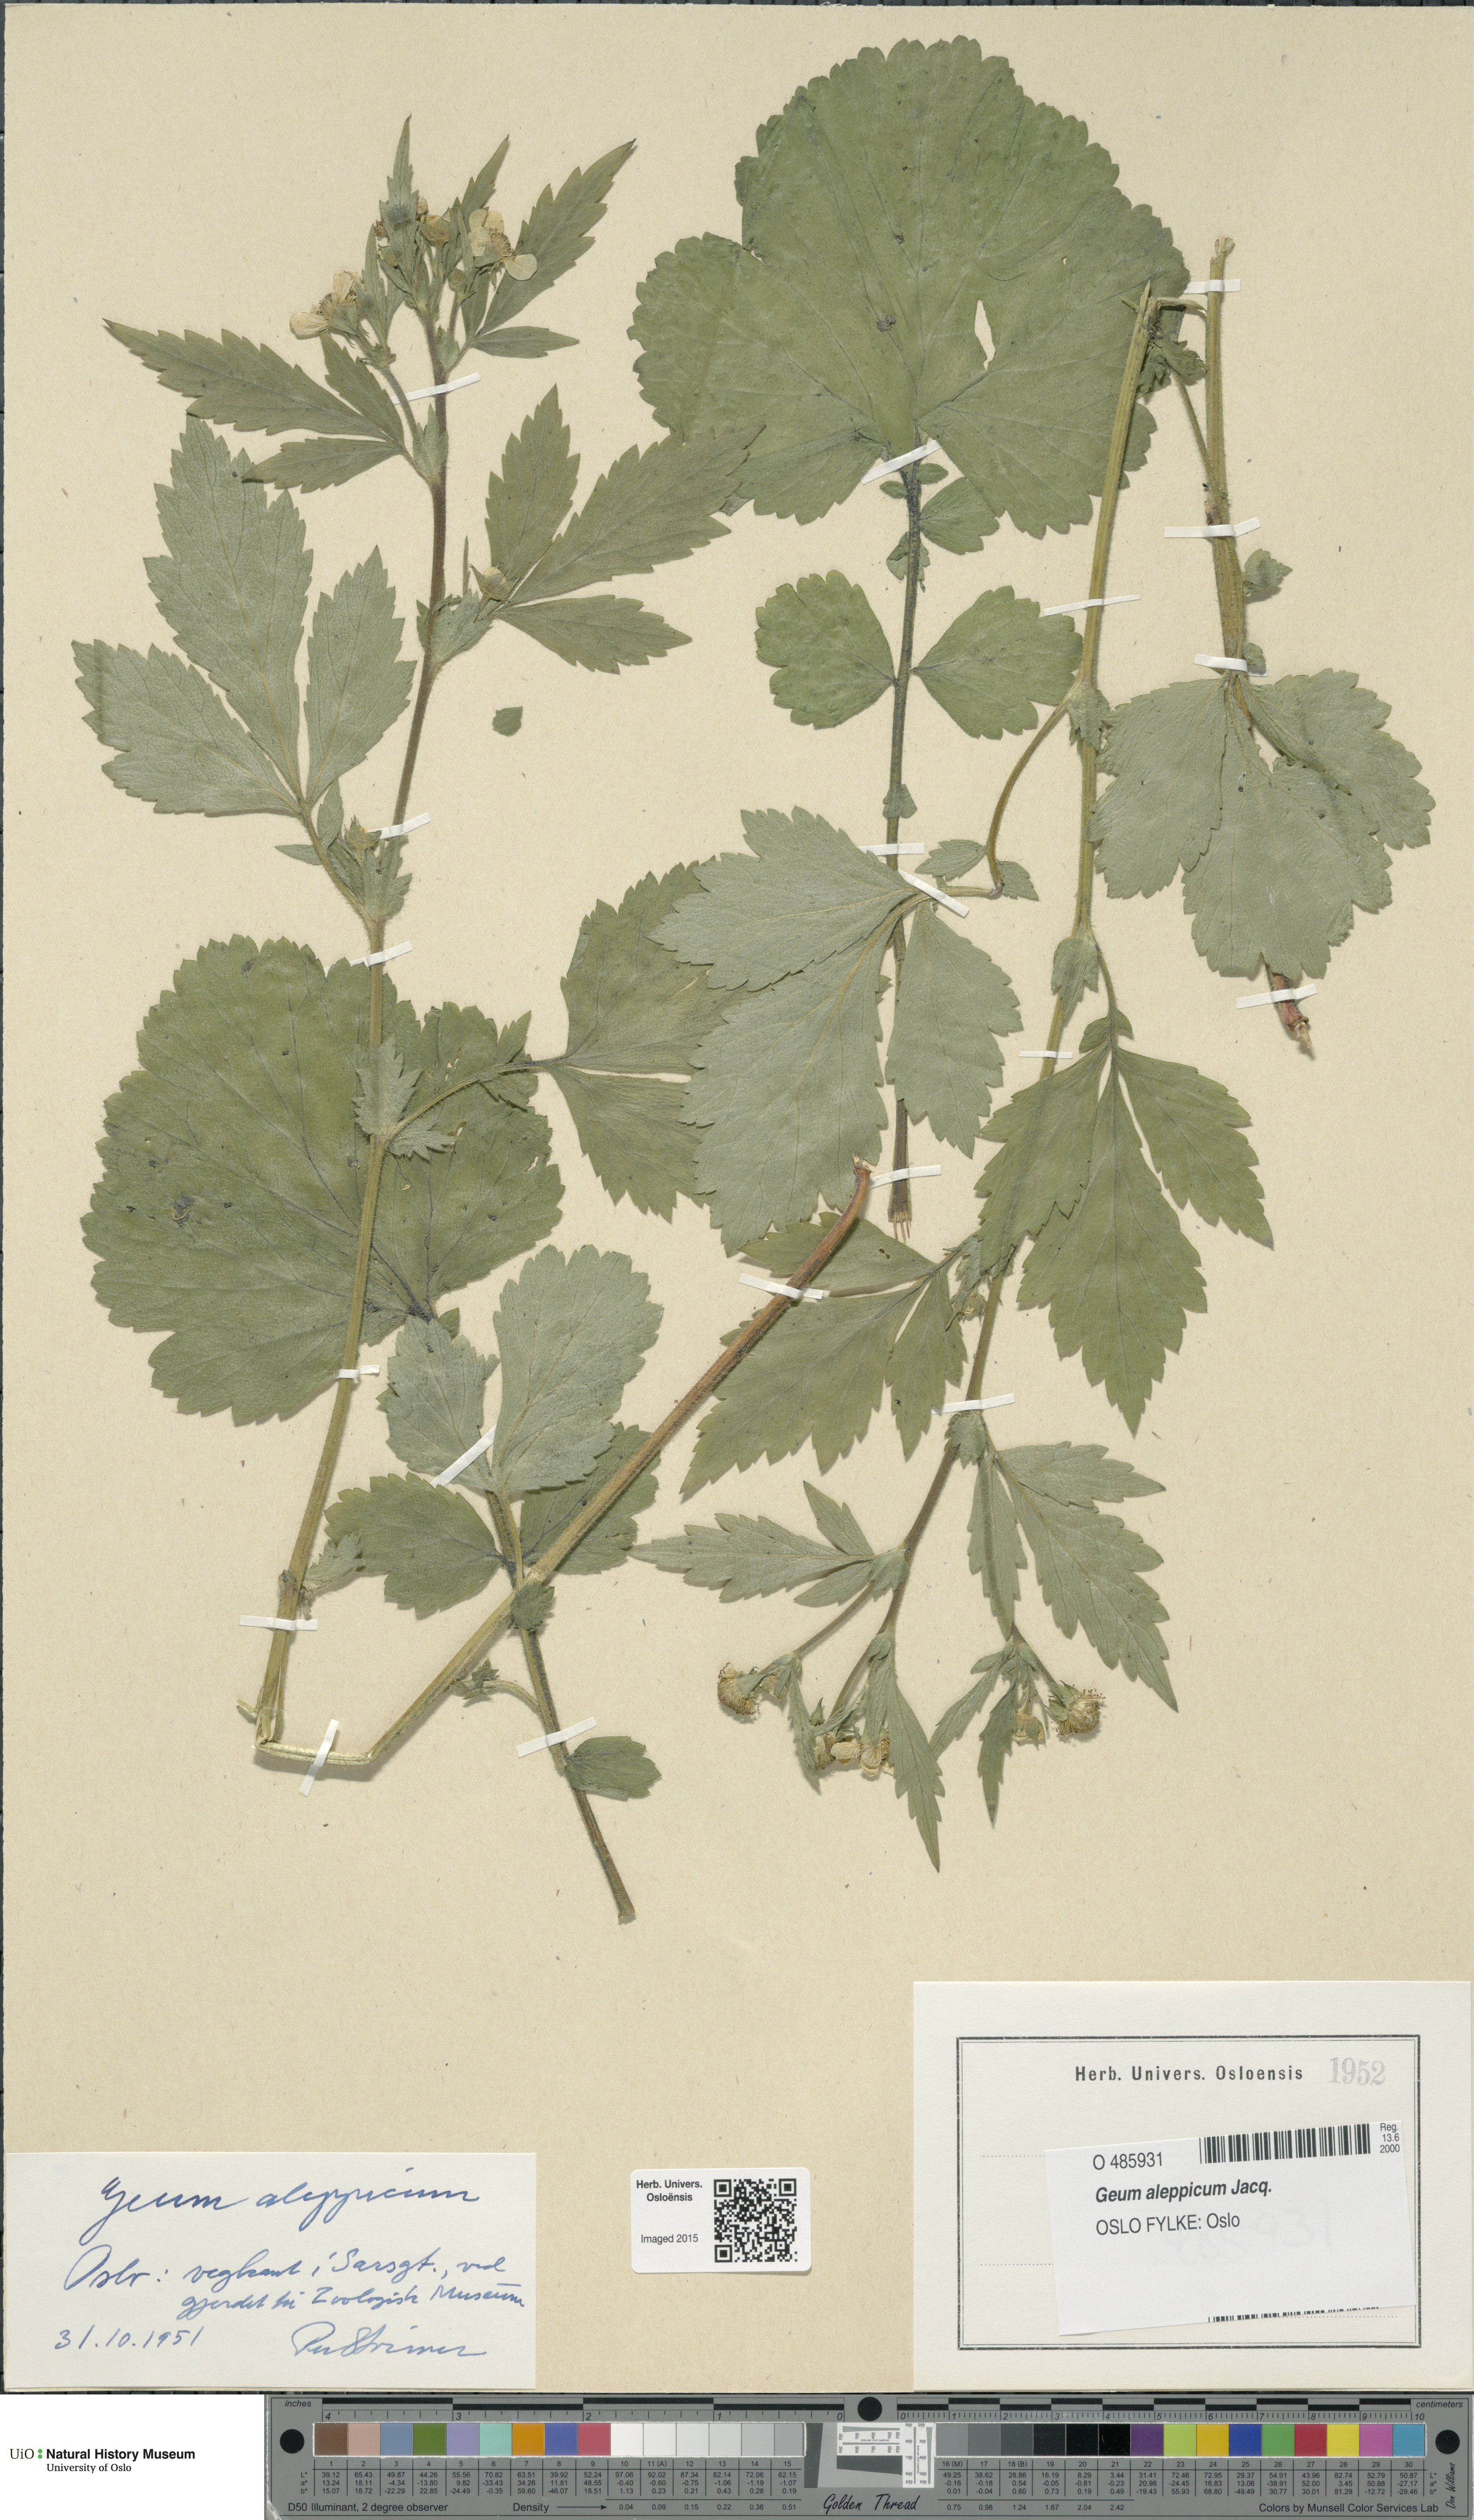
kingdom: Plantae
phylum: Tracheophyta
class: Magnoliopsida
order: Rosales
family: Rosaceae
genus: Geum
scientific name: Geum aleppicum
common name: Yellow avens
